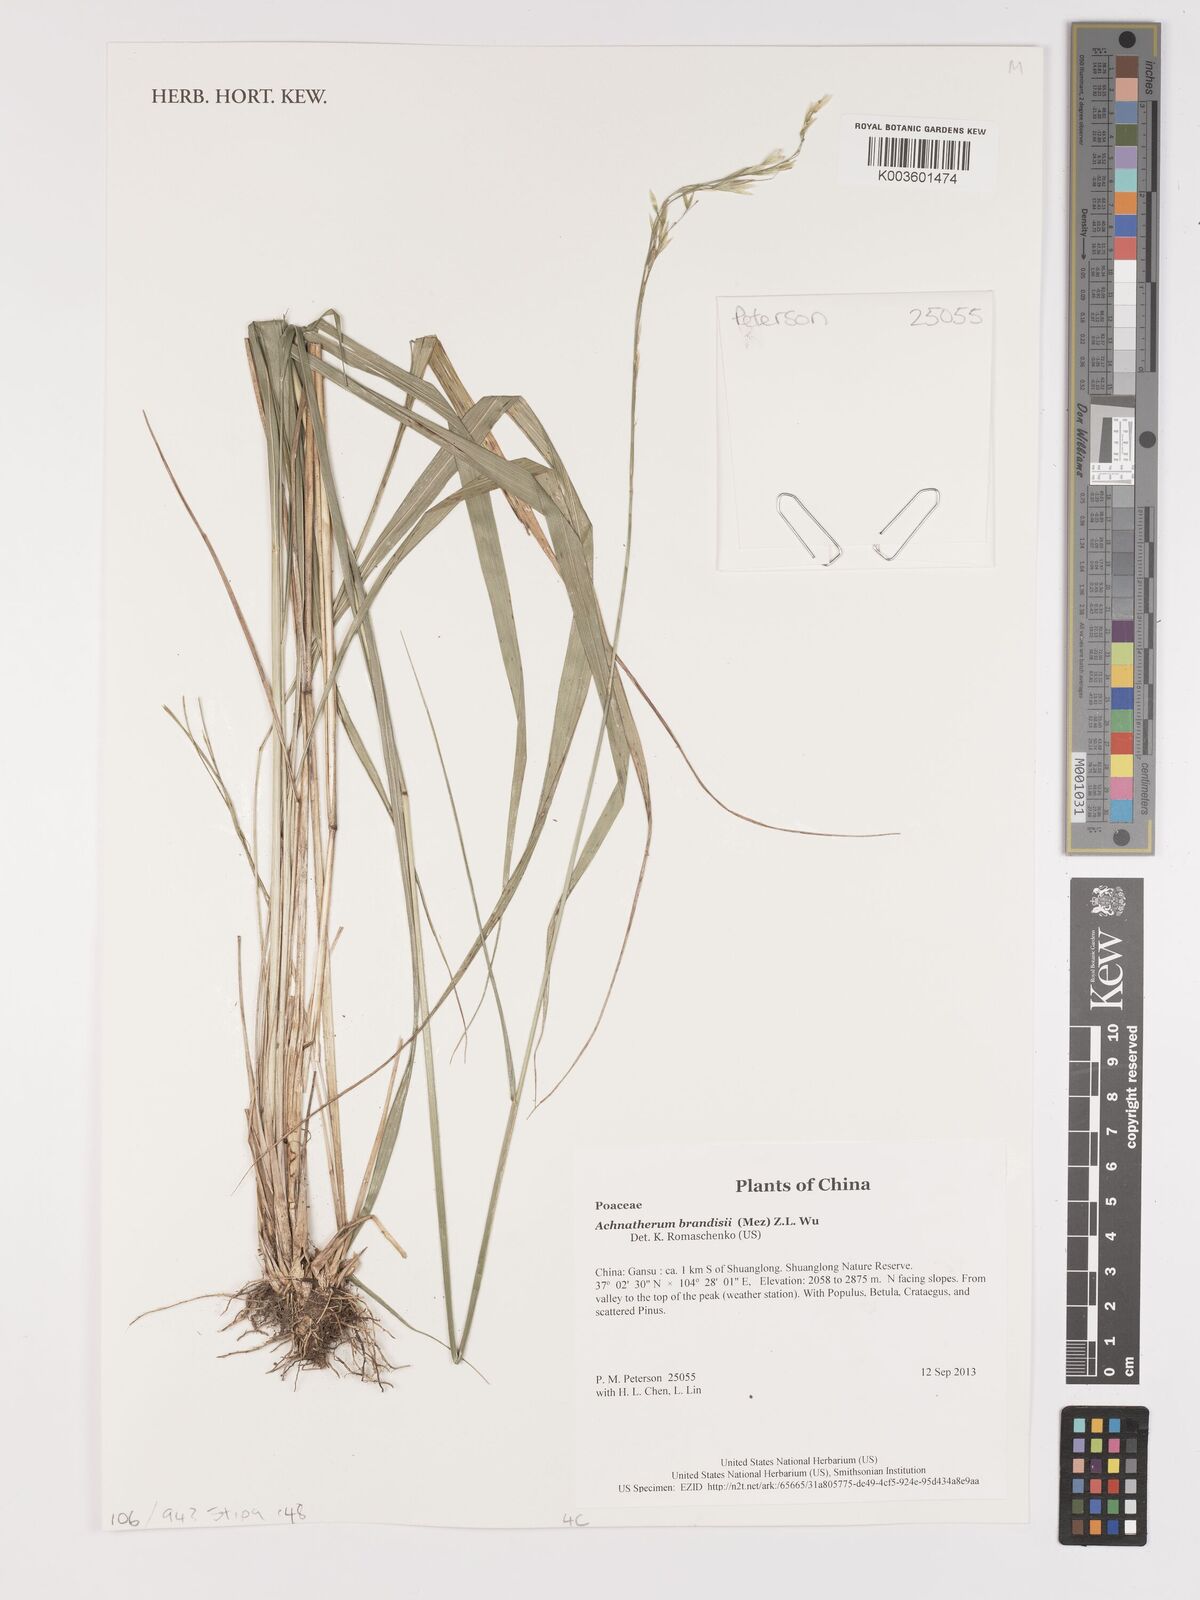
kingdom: Plantae
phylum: Tracheophyta
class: Liliopsida
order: Poales
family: Poaceae
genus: Achnatherum
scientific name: Achnatherum brandisii
